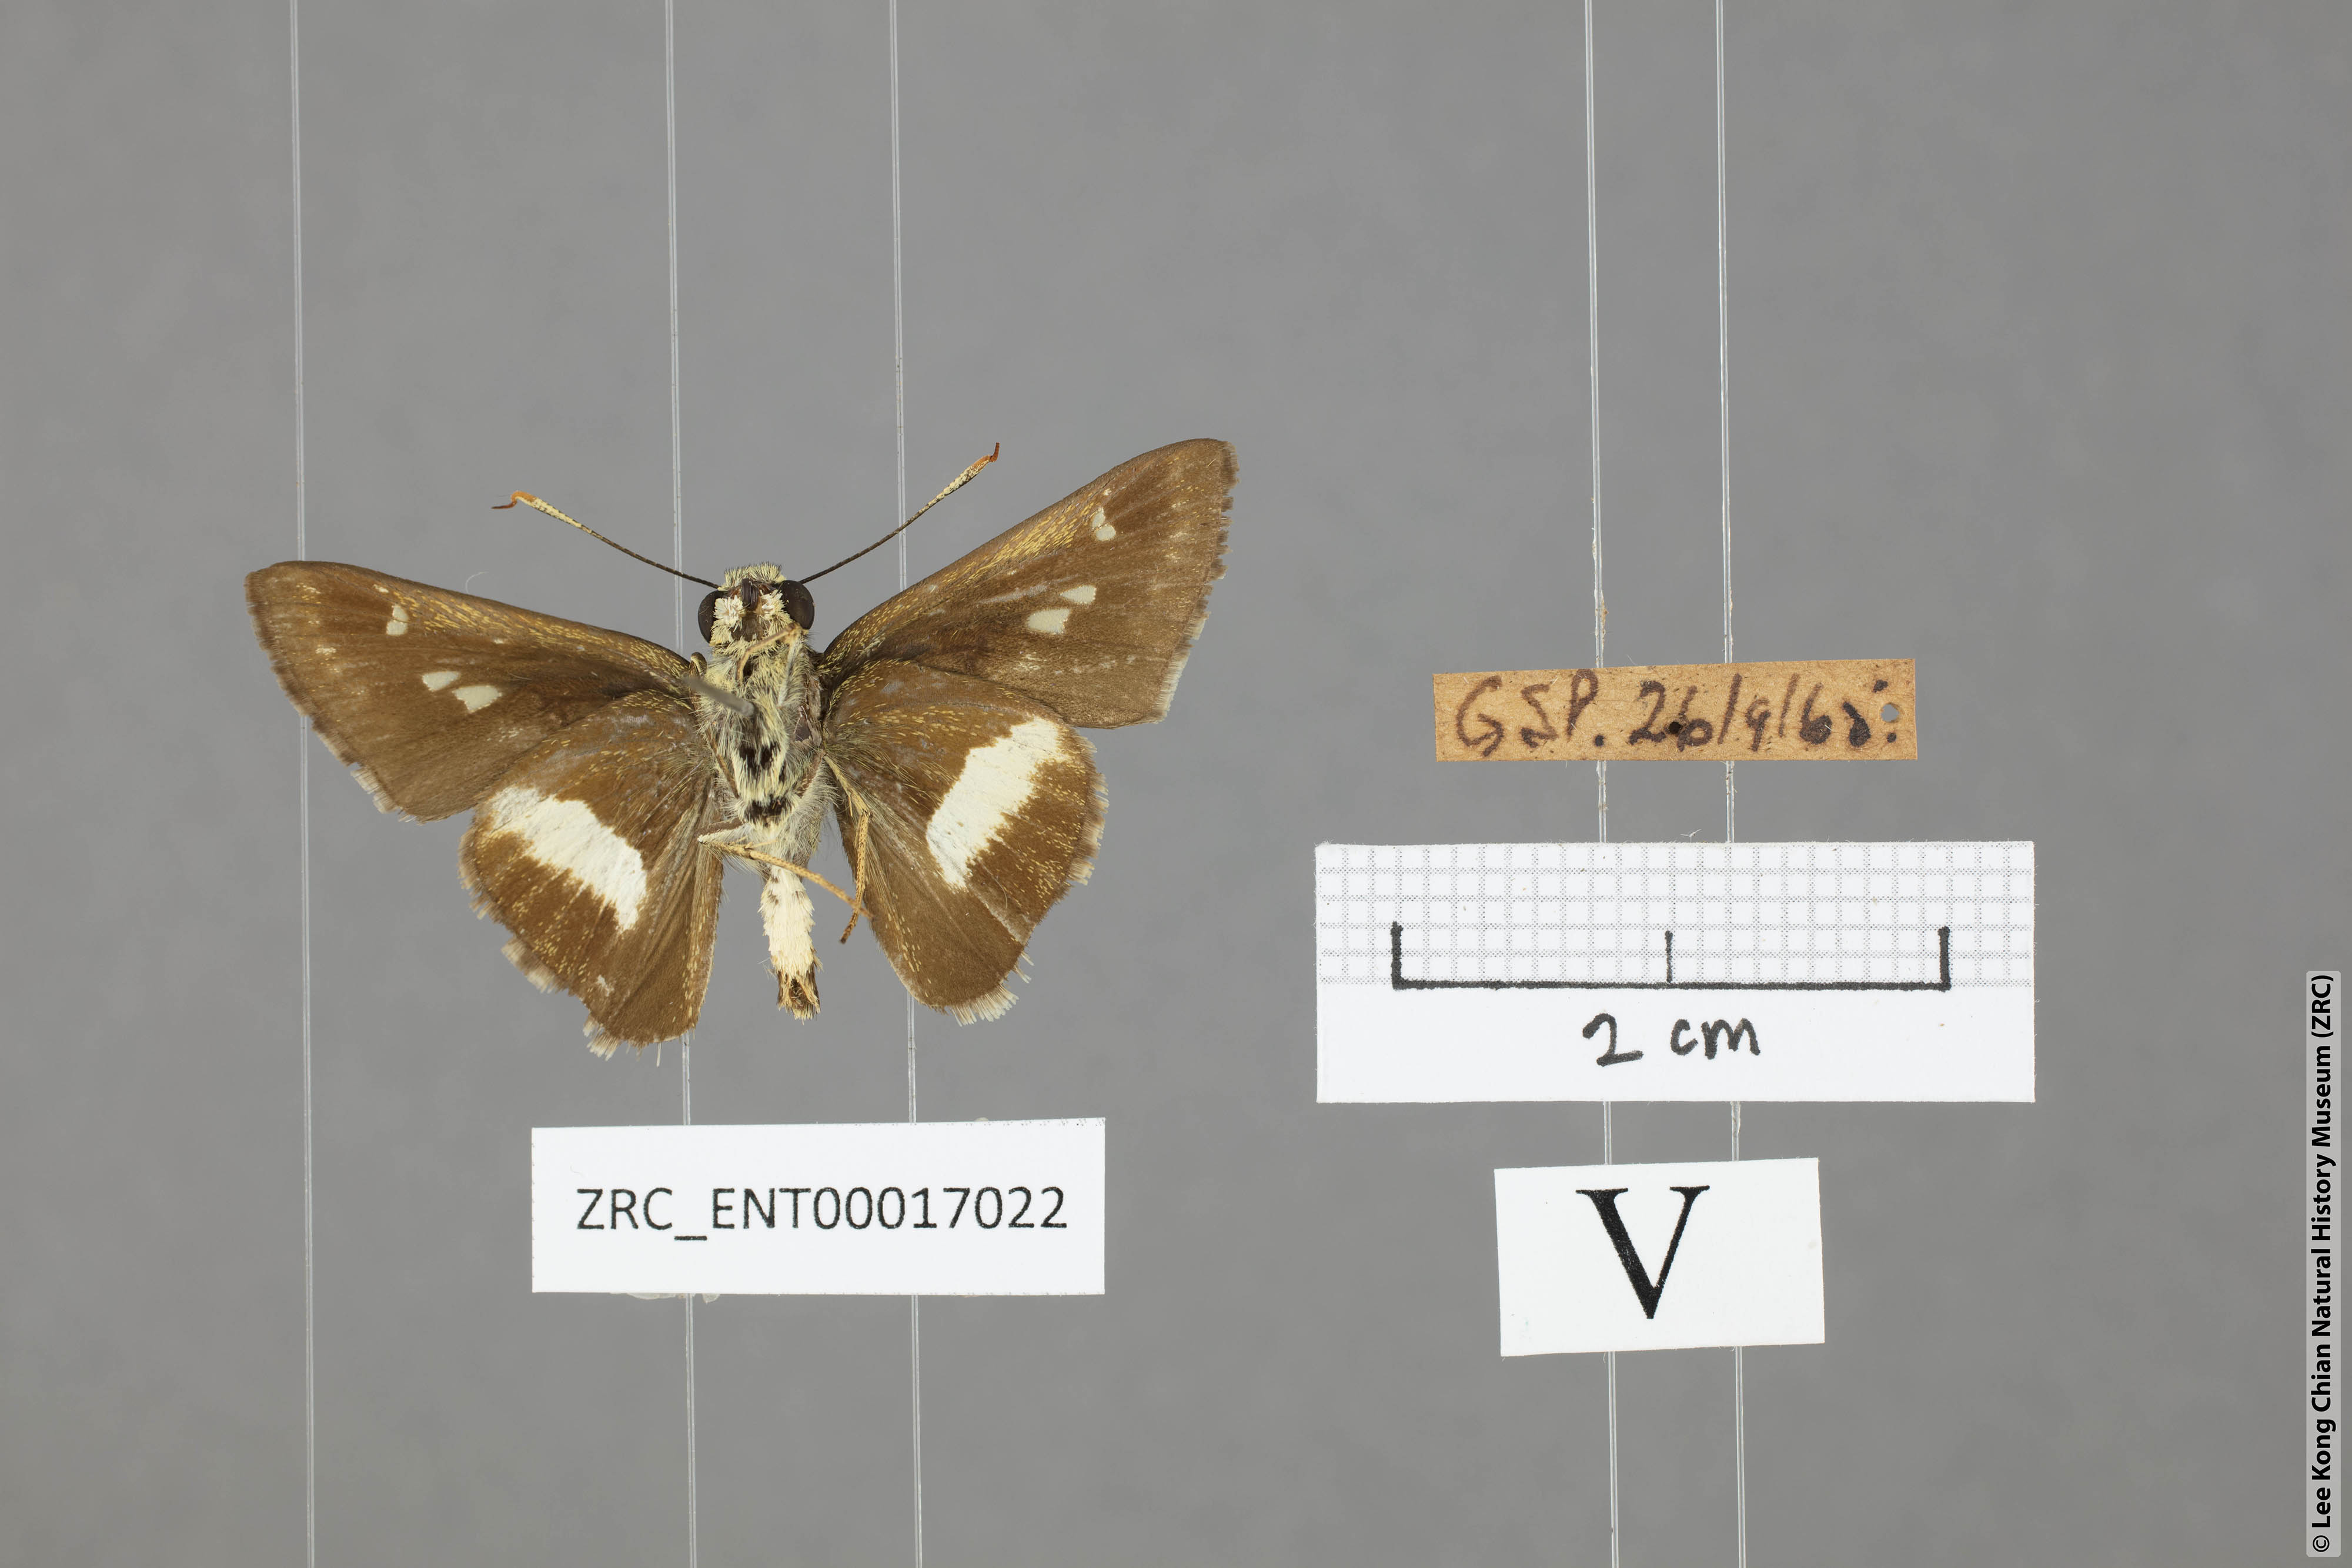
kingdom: Animalia
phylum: Arthropoda
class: Insecta
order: Lepidoptera
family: Hesperiidae
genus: Halpe
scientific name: Halpe
